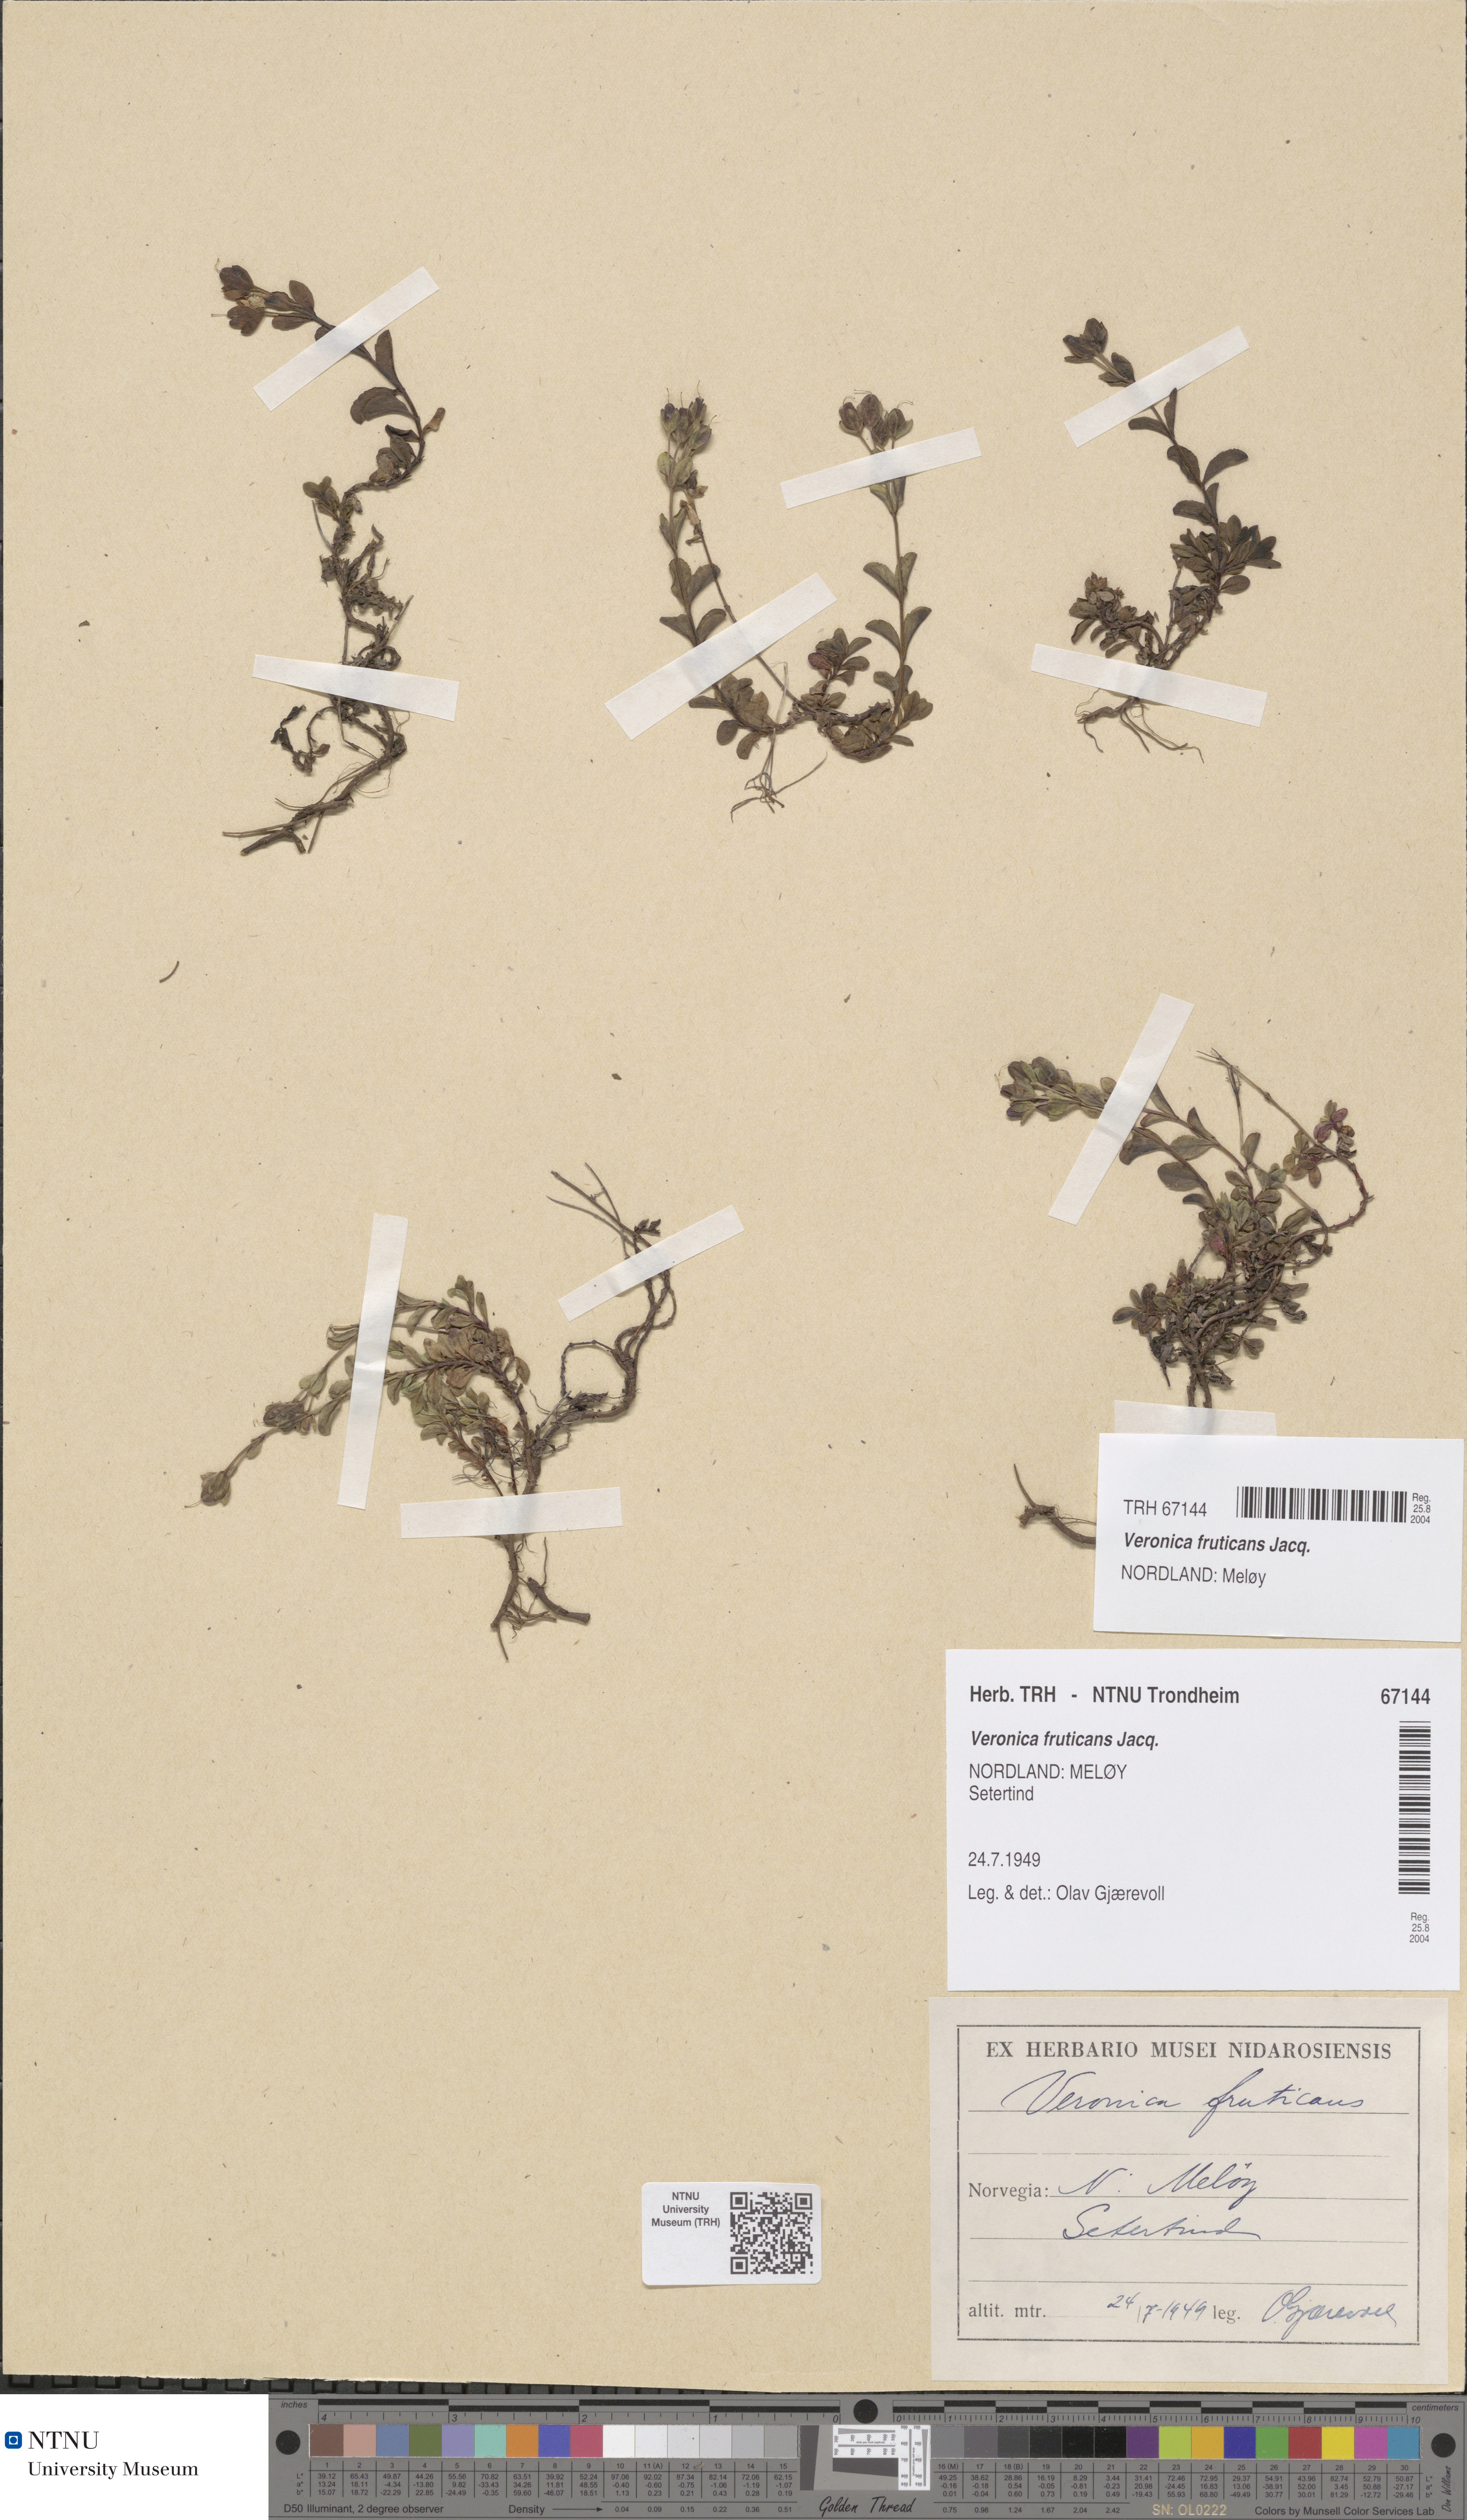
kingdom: Plantae
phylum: Tracheophyta
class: Magnoliopsida
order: Lamiales
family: Plantaginaceae
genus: Veronica
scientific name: Veronica fruticans
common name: Rock speedwell
